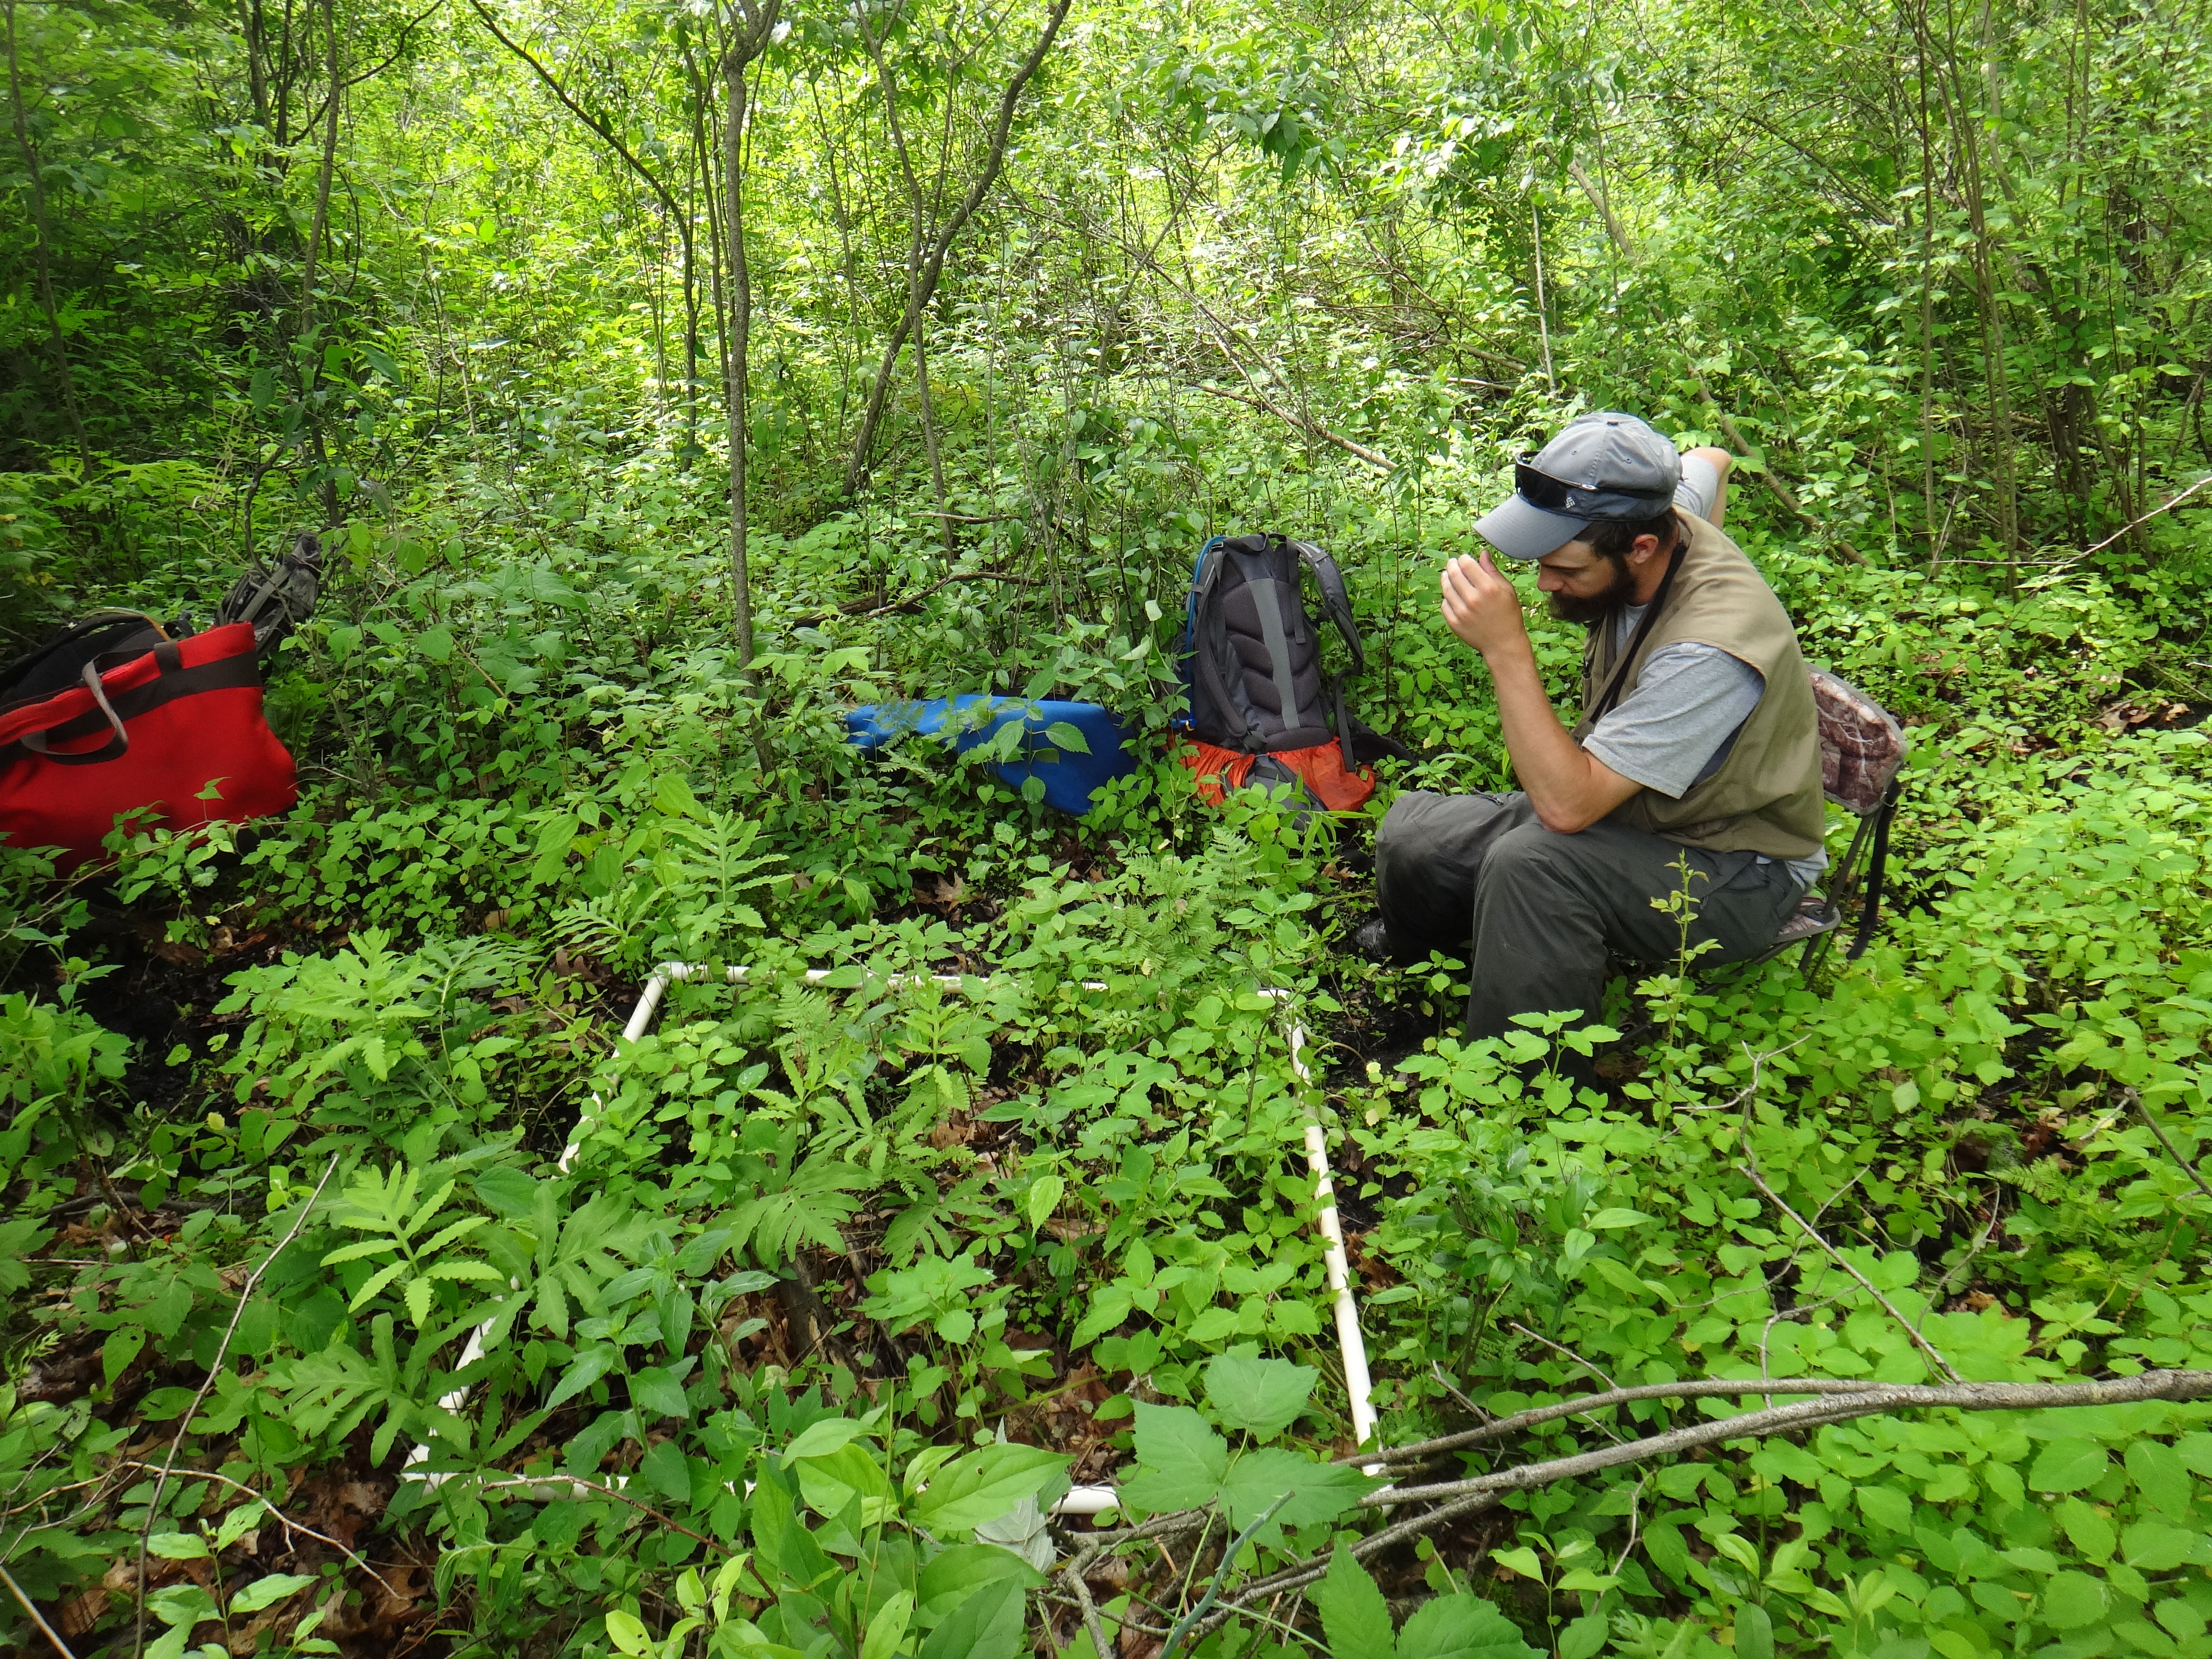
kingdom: Plantae
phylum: Tracheophyta
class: Magnoliopsida
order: Asterales
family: Asteraceae
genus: Eutrochium
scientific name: Eutrochium maculatum
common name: Spotted joe pye weed
